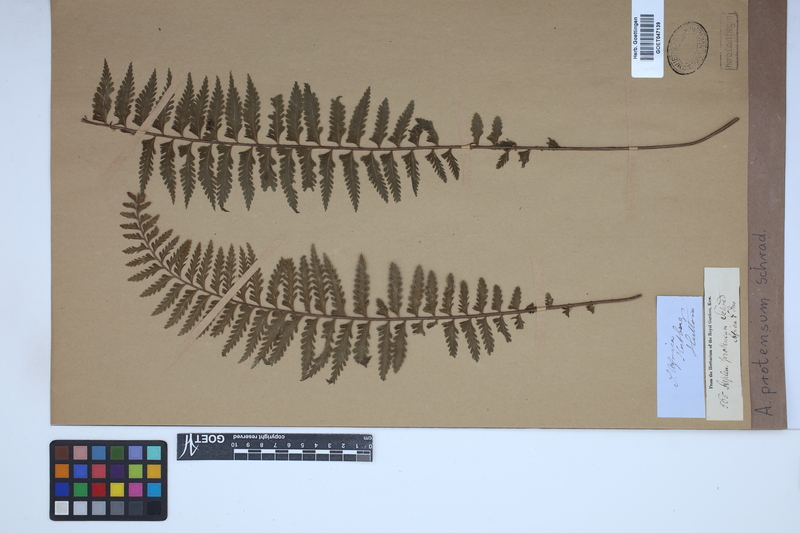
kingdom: Plantae
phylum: Tracheophyta
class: Polypodiopsida
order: Polypodiales
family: Aspleniaceae
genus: Asplenium
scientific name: Asplenium protensum
